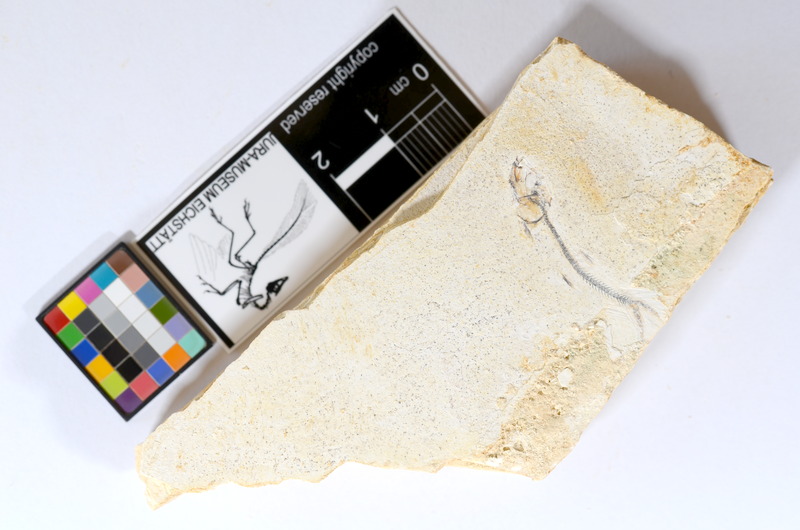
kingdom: Animalia
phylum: Chordata
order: Salmoniformes
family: Orthogonikleithridae
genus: Orthogonikleithrus
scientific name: Orthogonikleithrus hoelli
